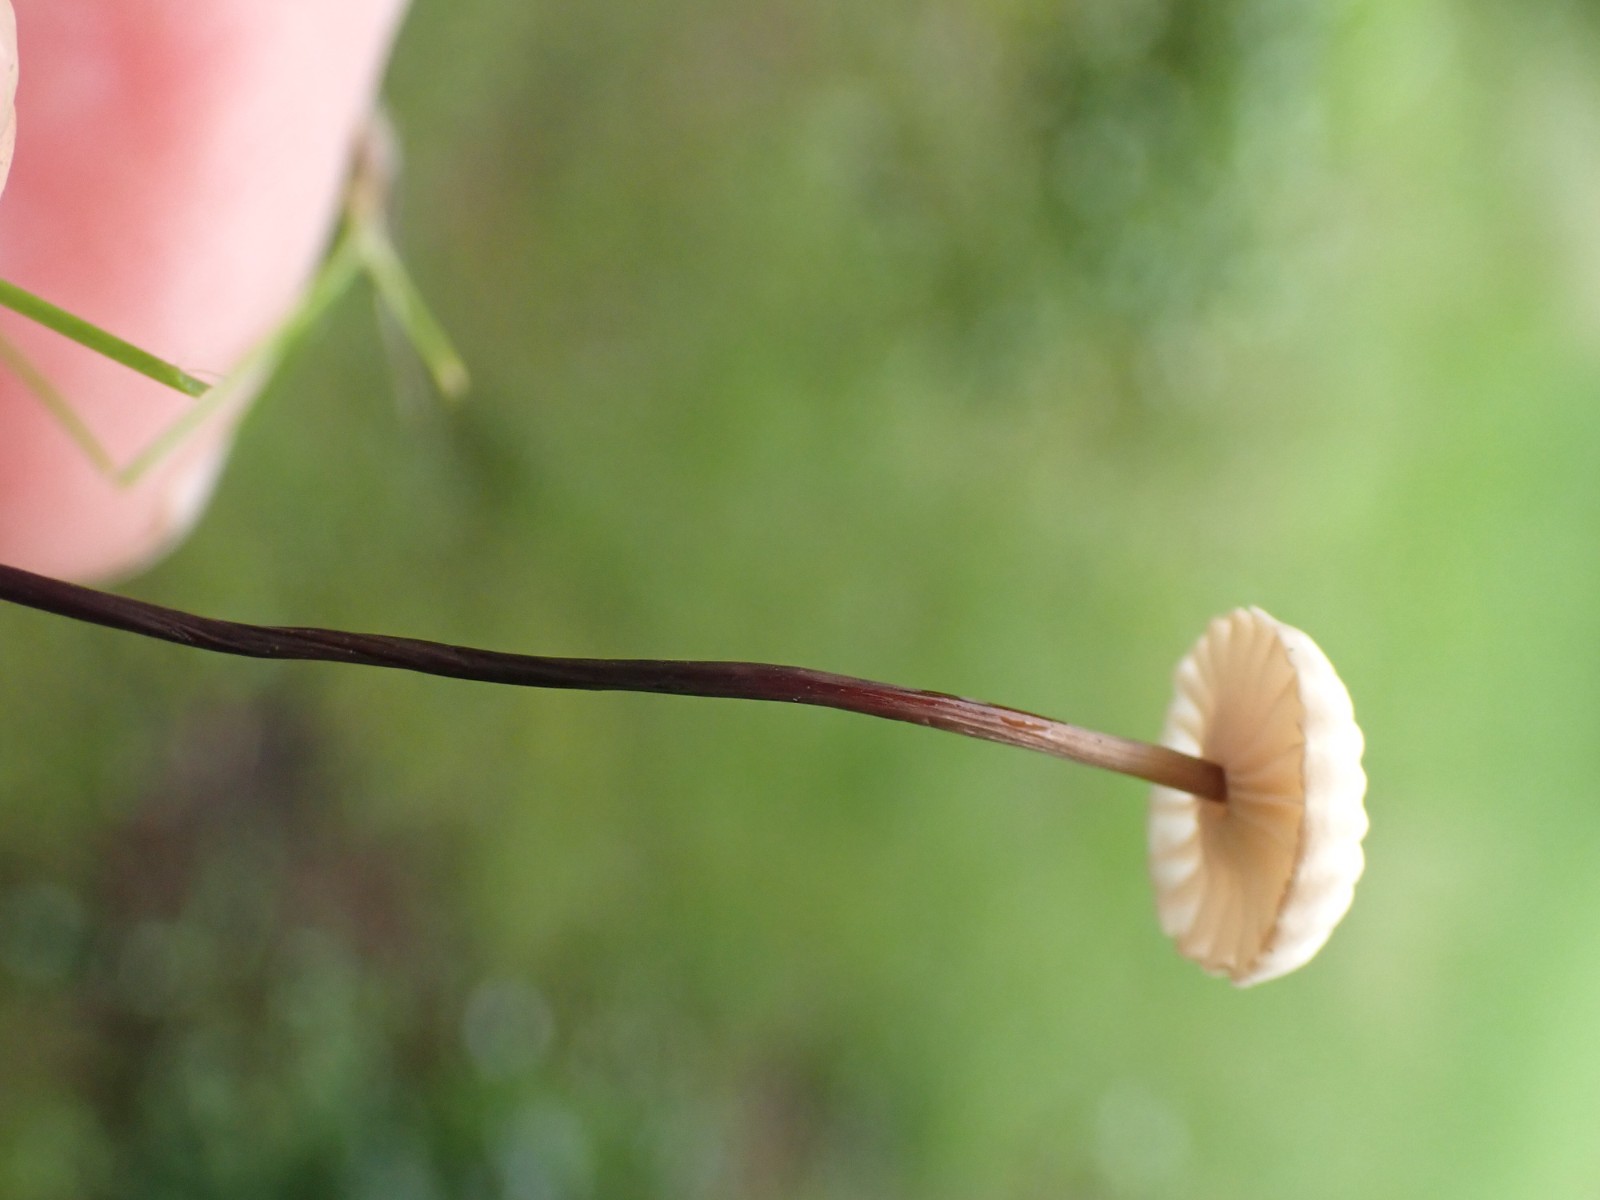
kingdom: Fungi
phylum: Basidiomycota
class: Agaricomycetes
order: Agaricales
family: Marasmiaceae
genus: Marasmius
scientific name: Marasmius rotula
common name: hjul-bruskhat
